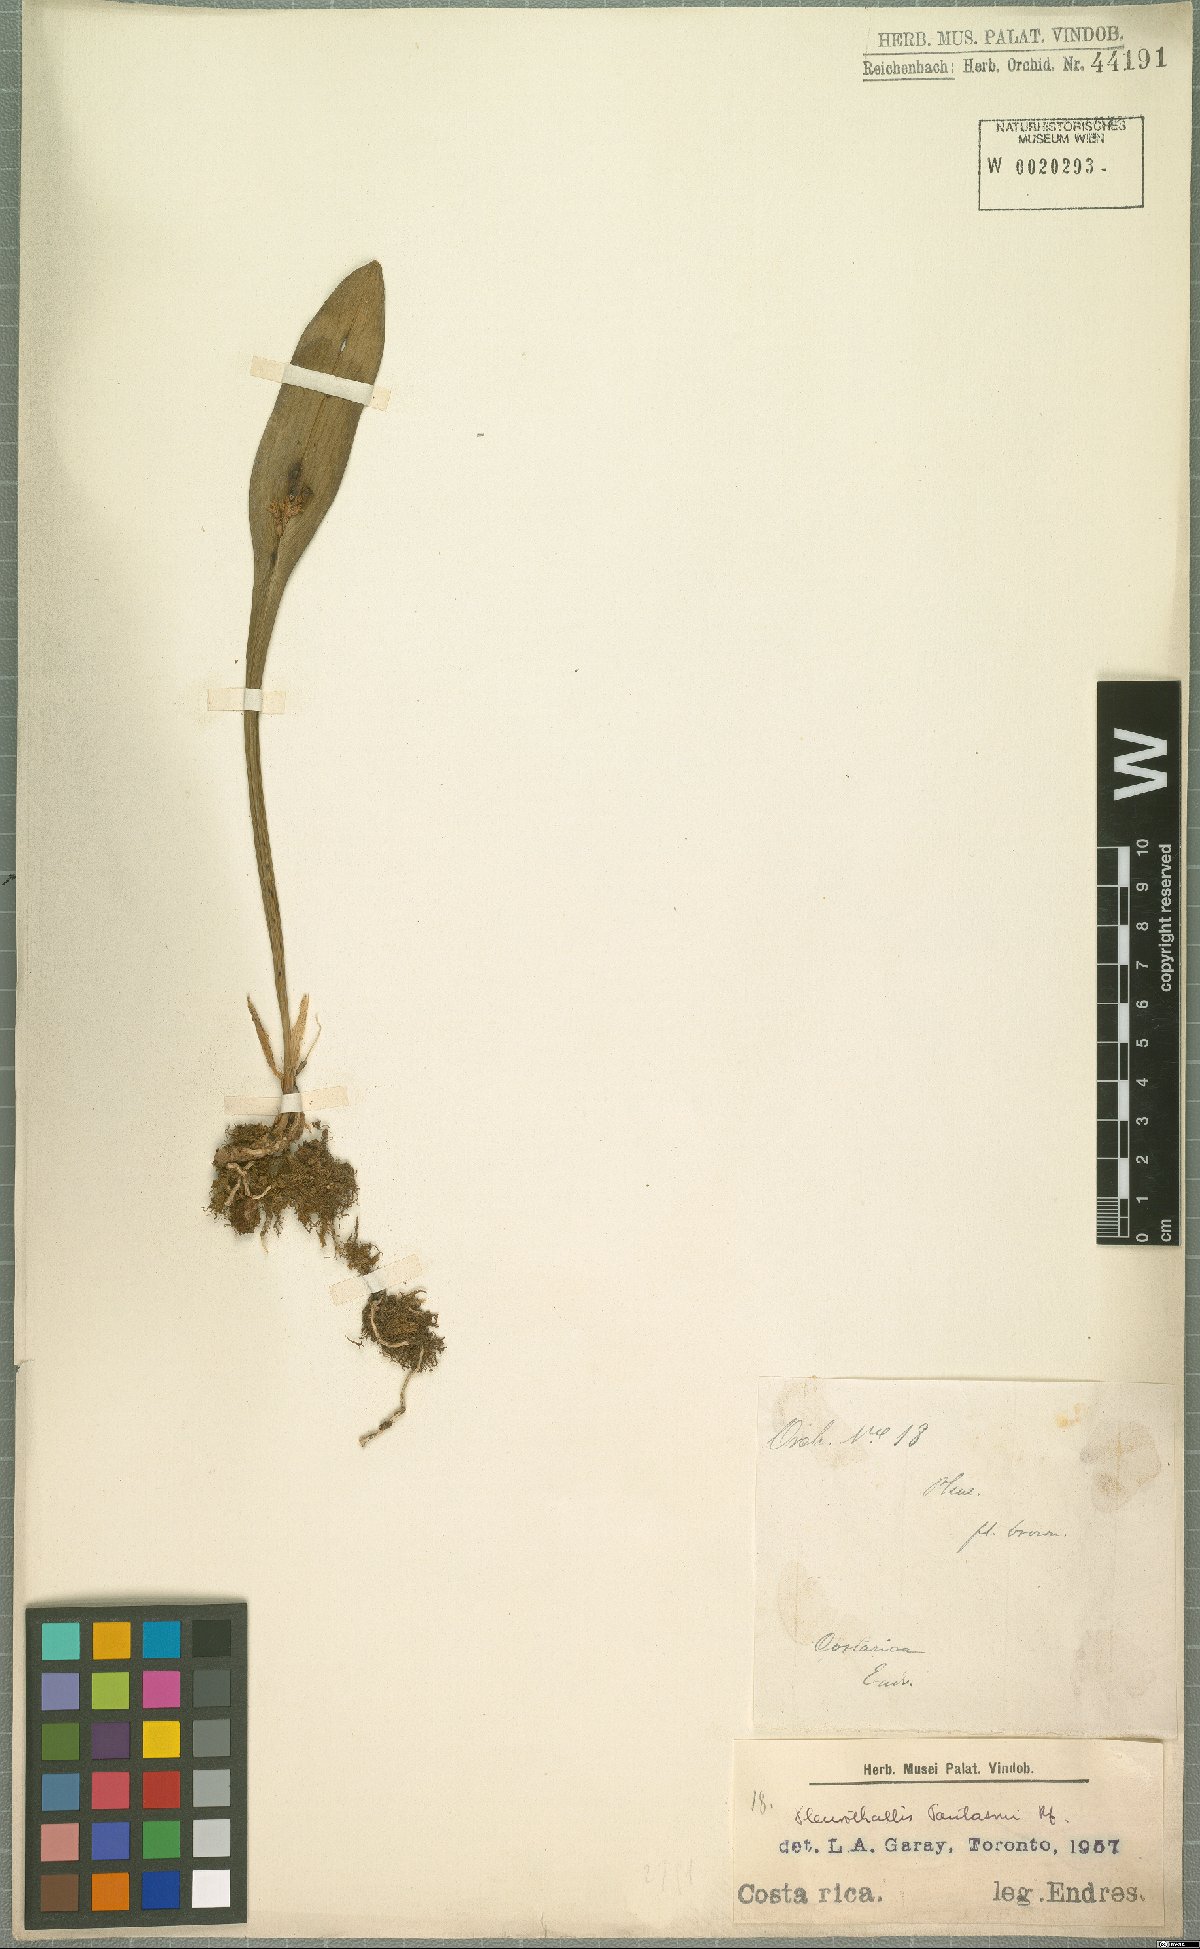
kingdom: Plantae
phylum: Tracheophyta
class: Liliopsida
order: Asparagales
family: Orchidaceae
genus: Acianthera
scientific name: Acianthera pantasmi
